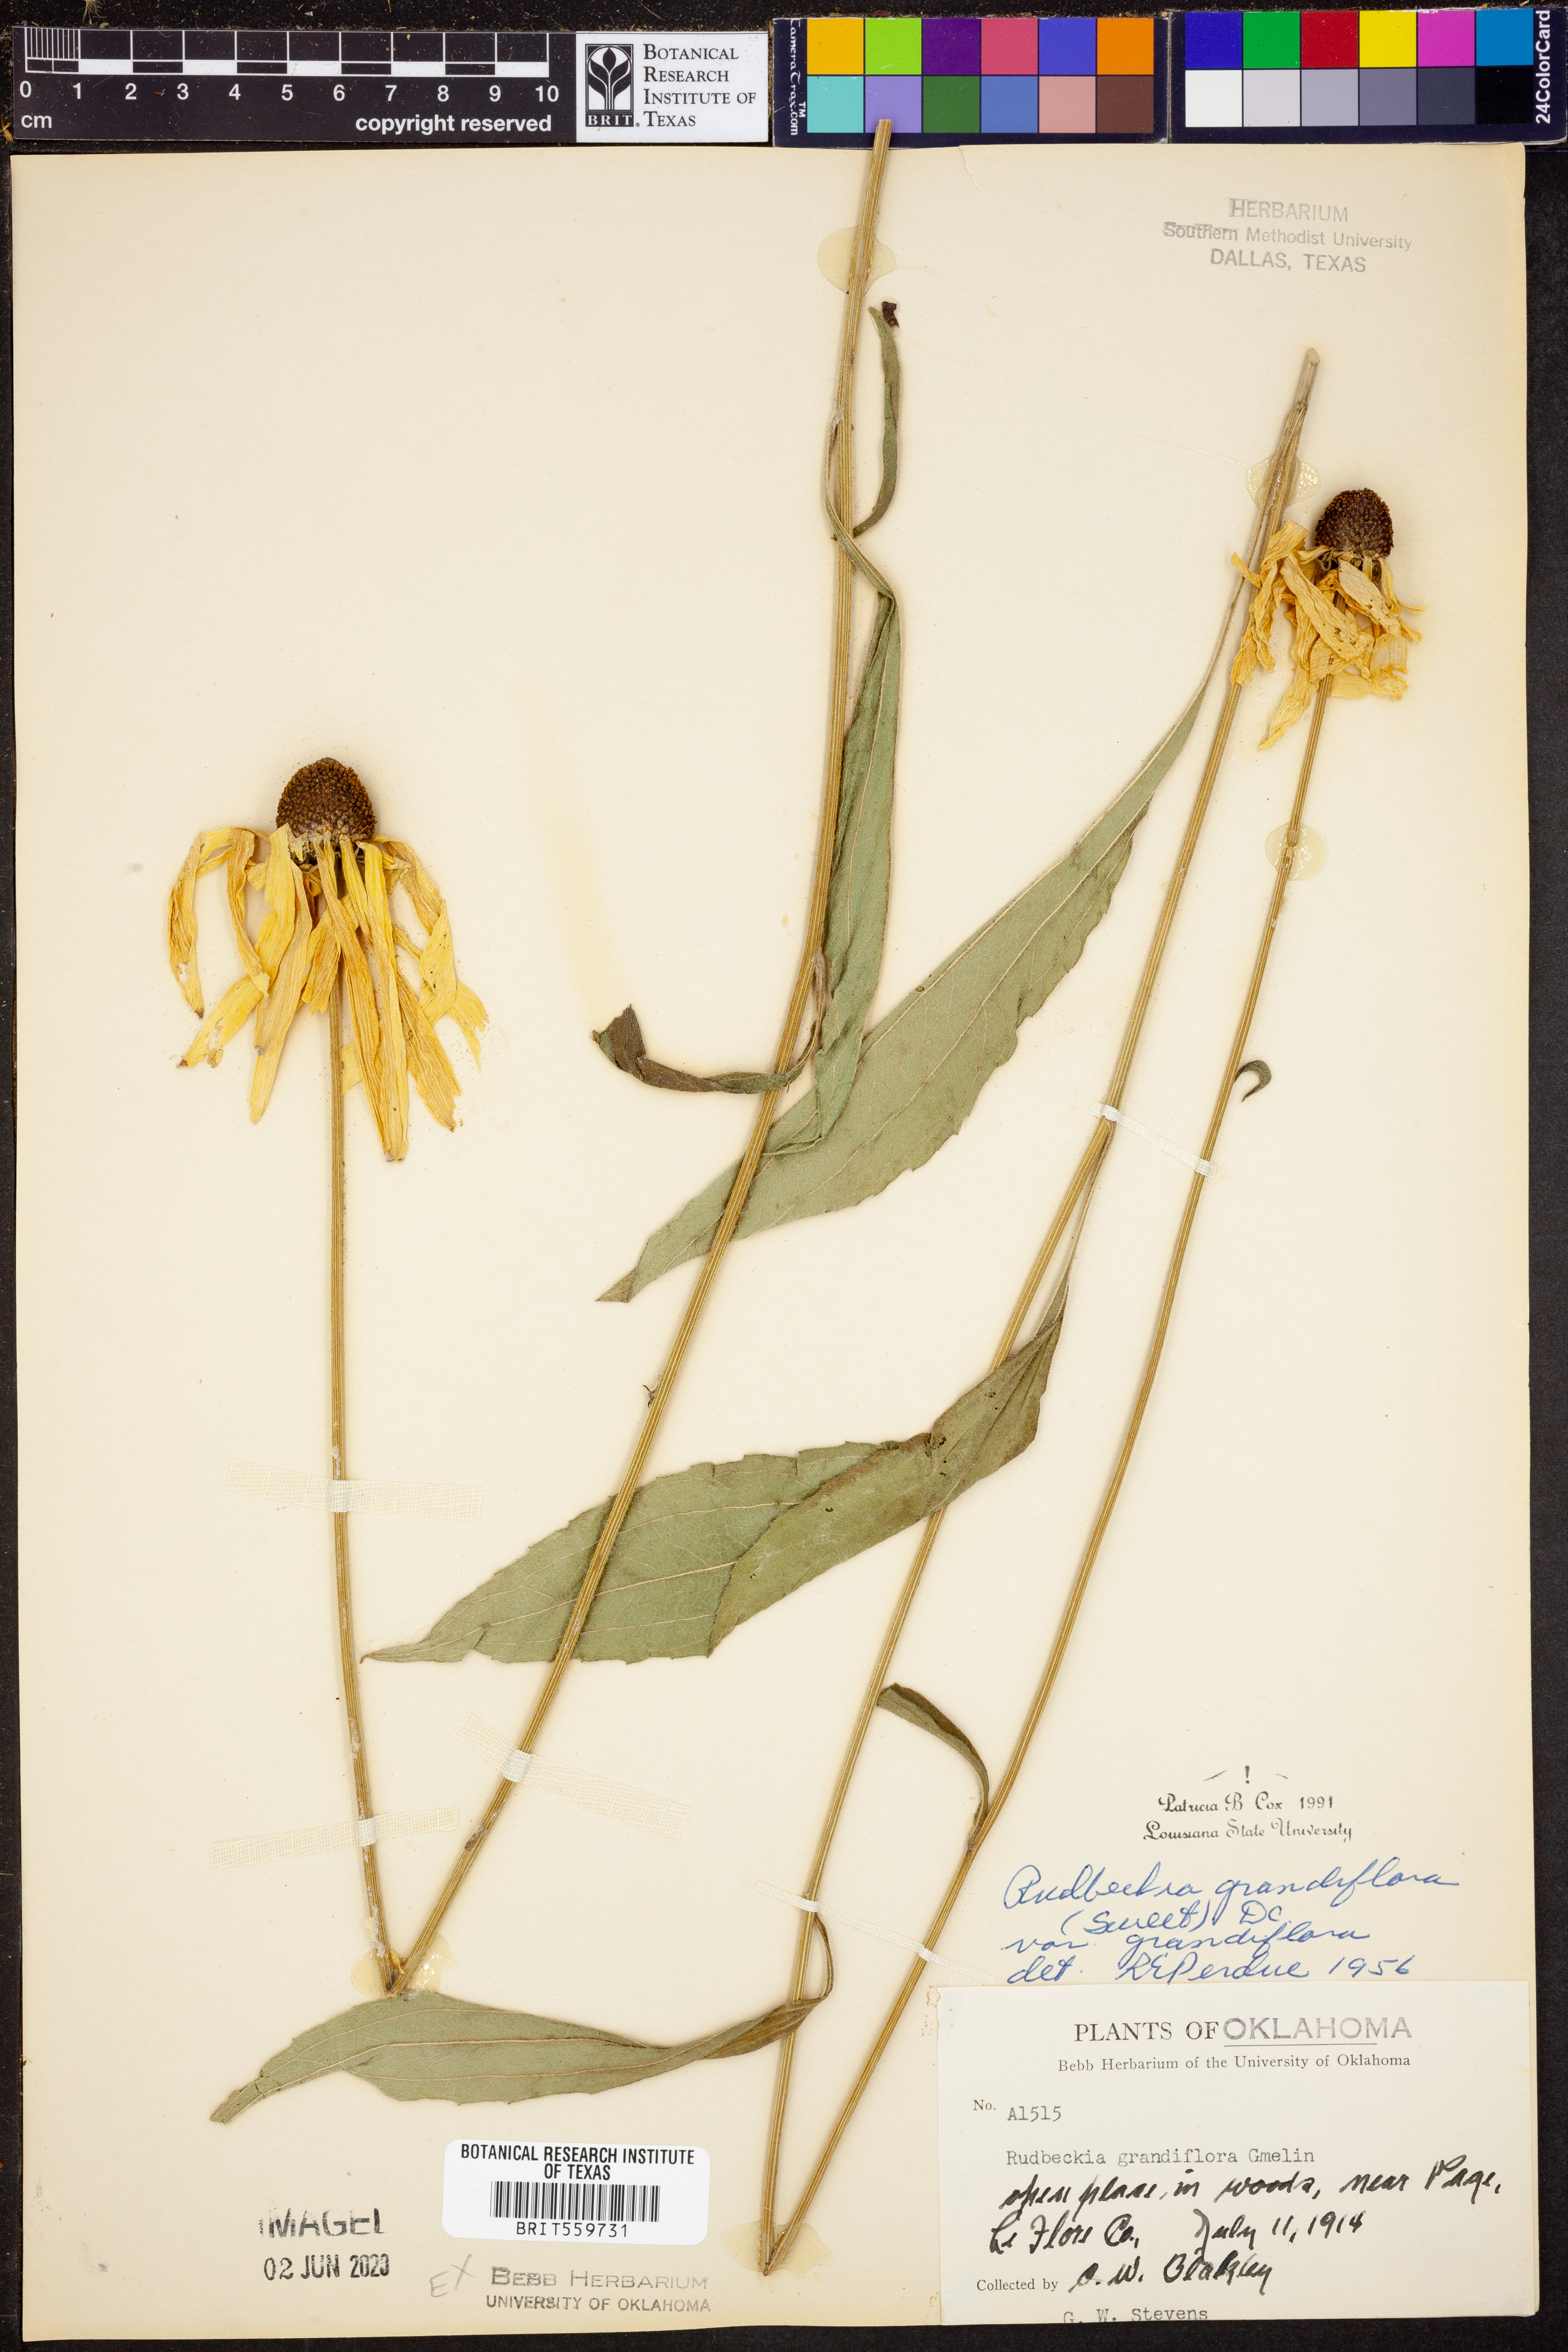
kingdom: Plantae
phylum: Tracheophyta
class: Magnoliopsida
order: Asterales
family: Asteraceae
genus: Rudbeckia
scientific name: Rudbeckia grandiflora
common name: Large-flowered coneflower
